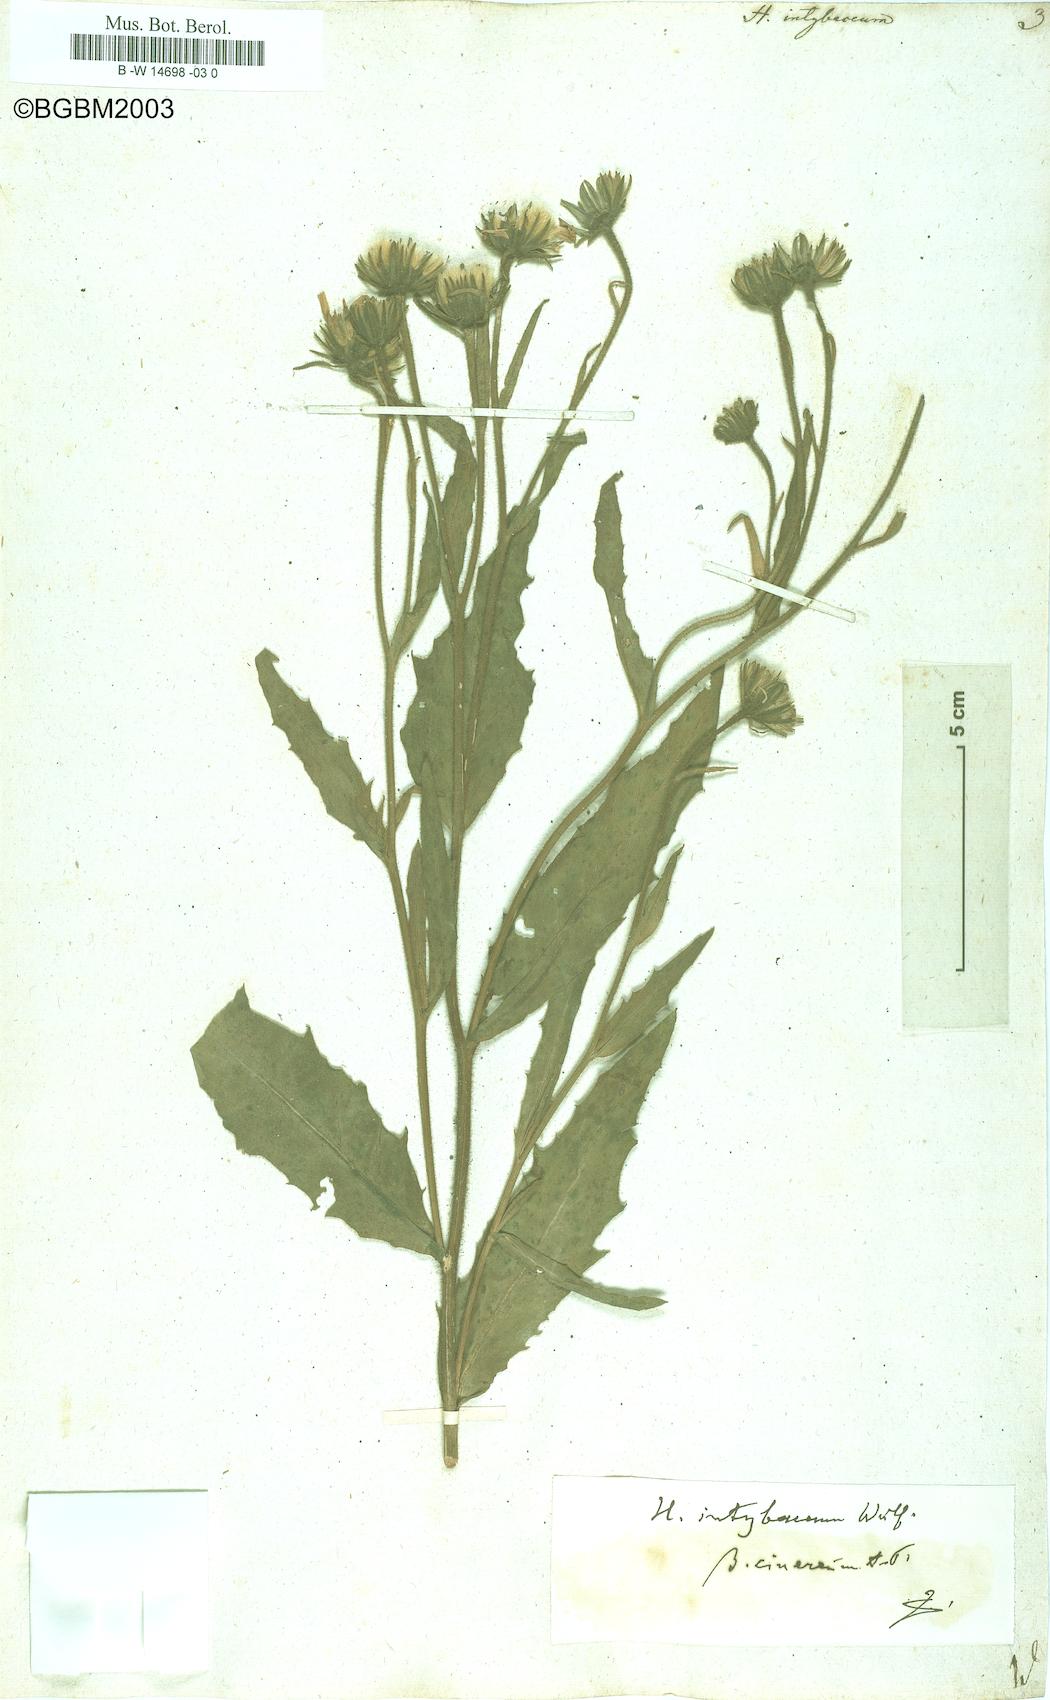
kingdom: Plantae
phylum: Tracheophyta
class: Magnoliopsida
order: Asterales
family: Asteraceae
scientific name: Asteraceae
